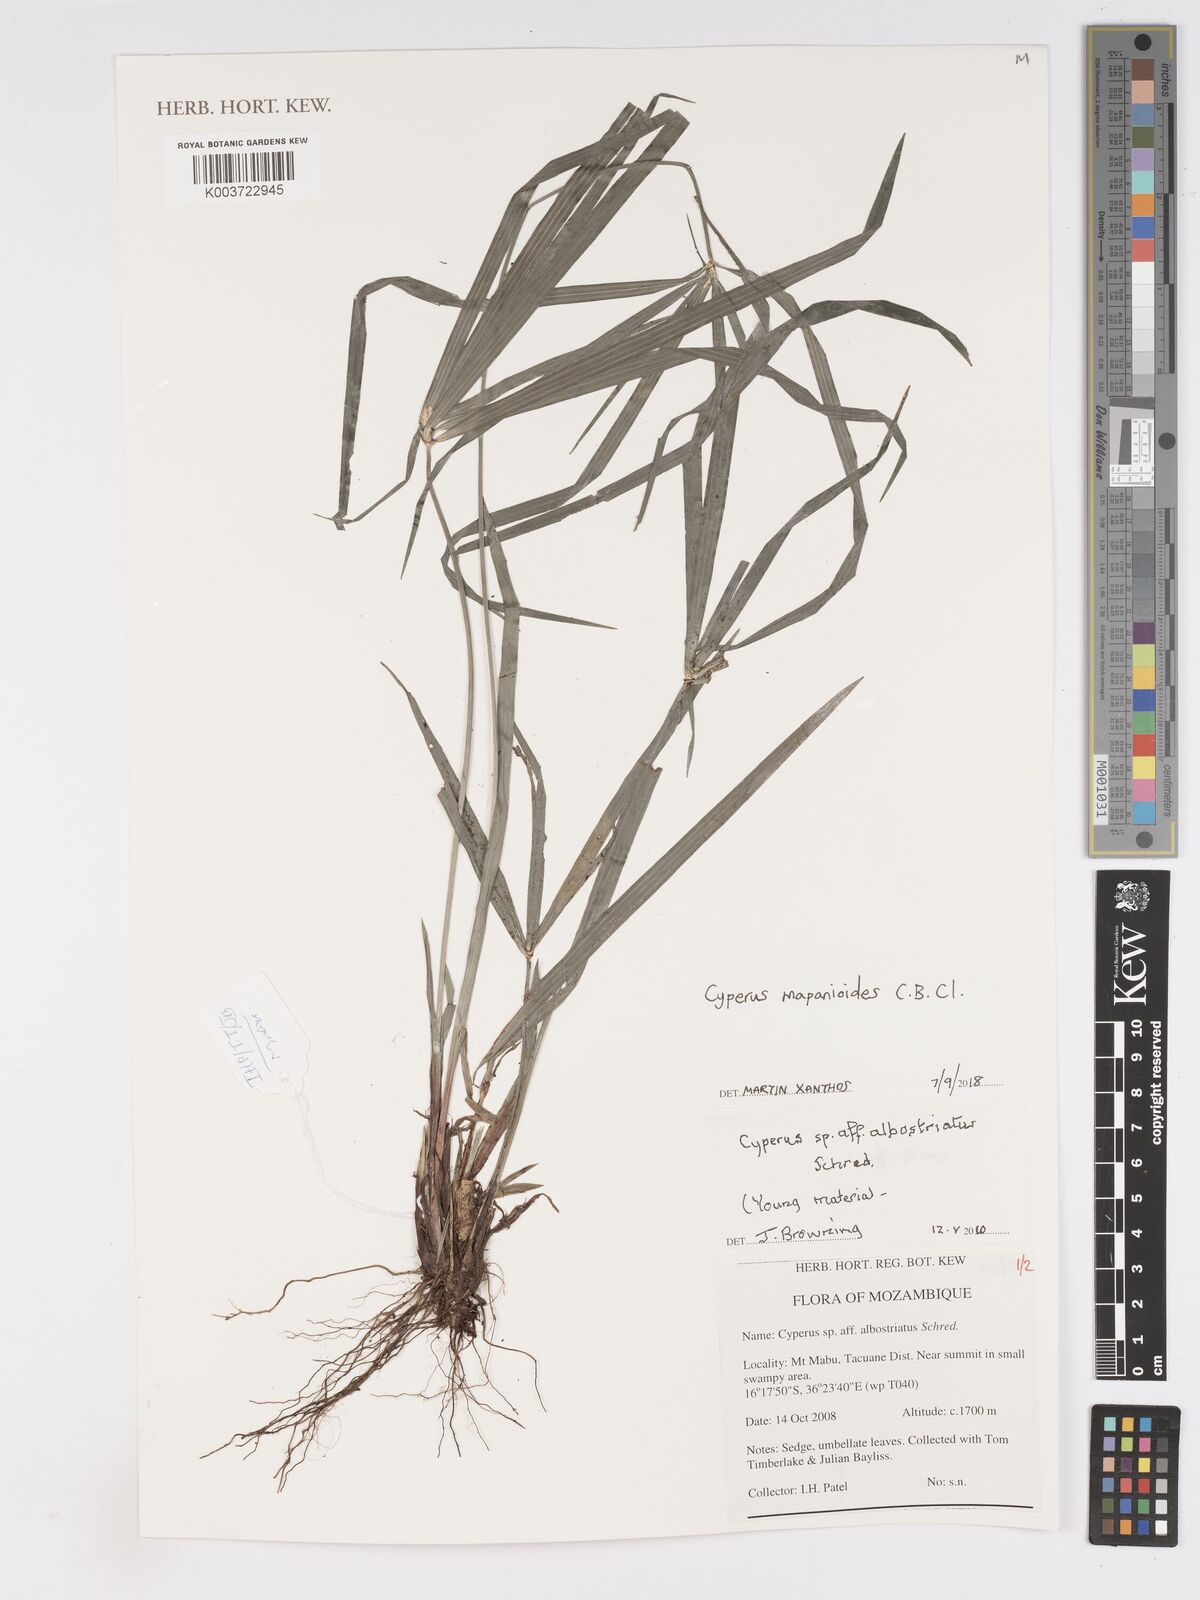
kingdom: Plantae
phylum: Tracheophyta
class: Liliopsida
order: Poales
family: Cyperaceae
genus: Cyperus
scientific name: Cyperus mapanioides
